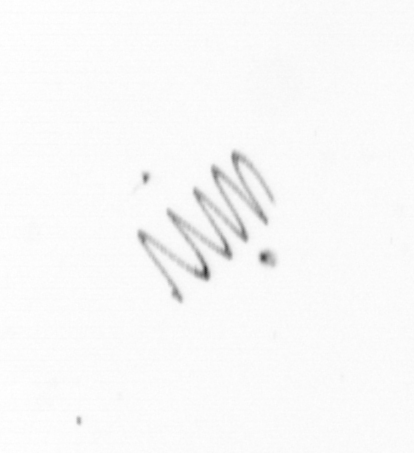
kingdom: Chromista
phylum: Ochrophyta
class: Bacillariophyceae
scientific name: Bacillariophyceae
